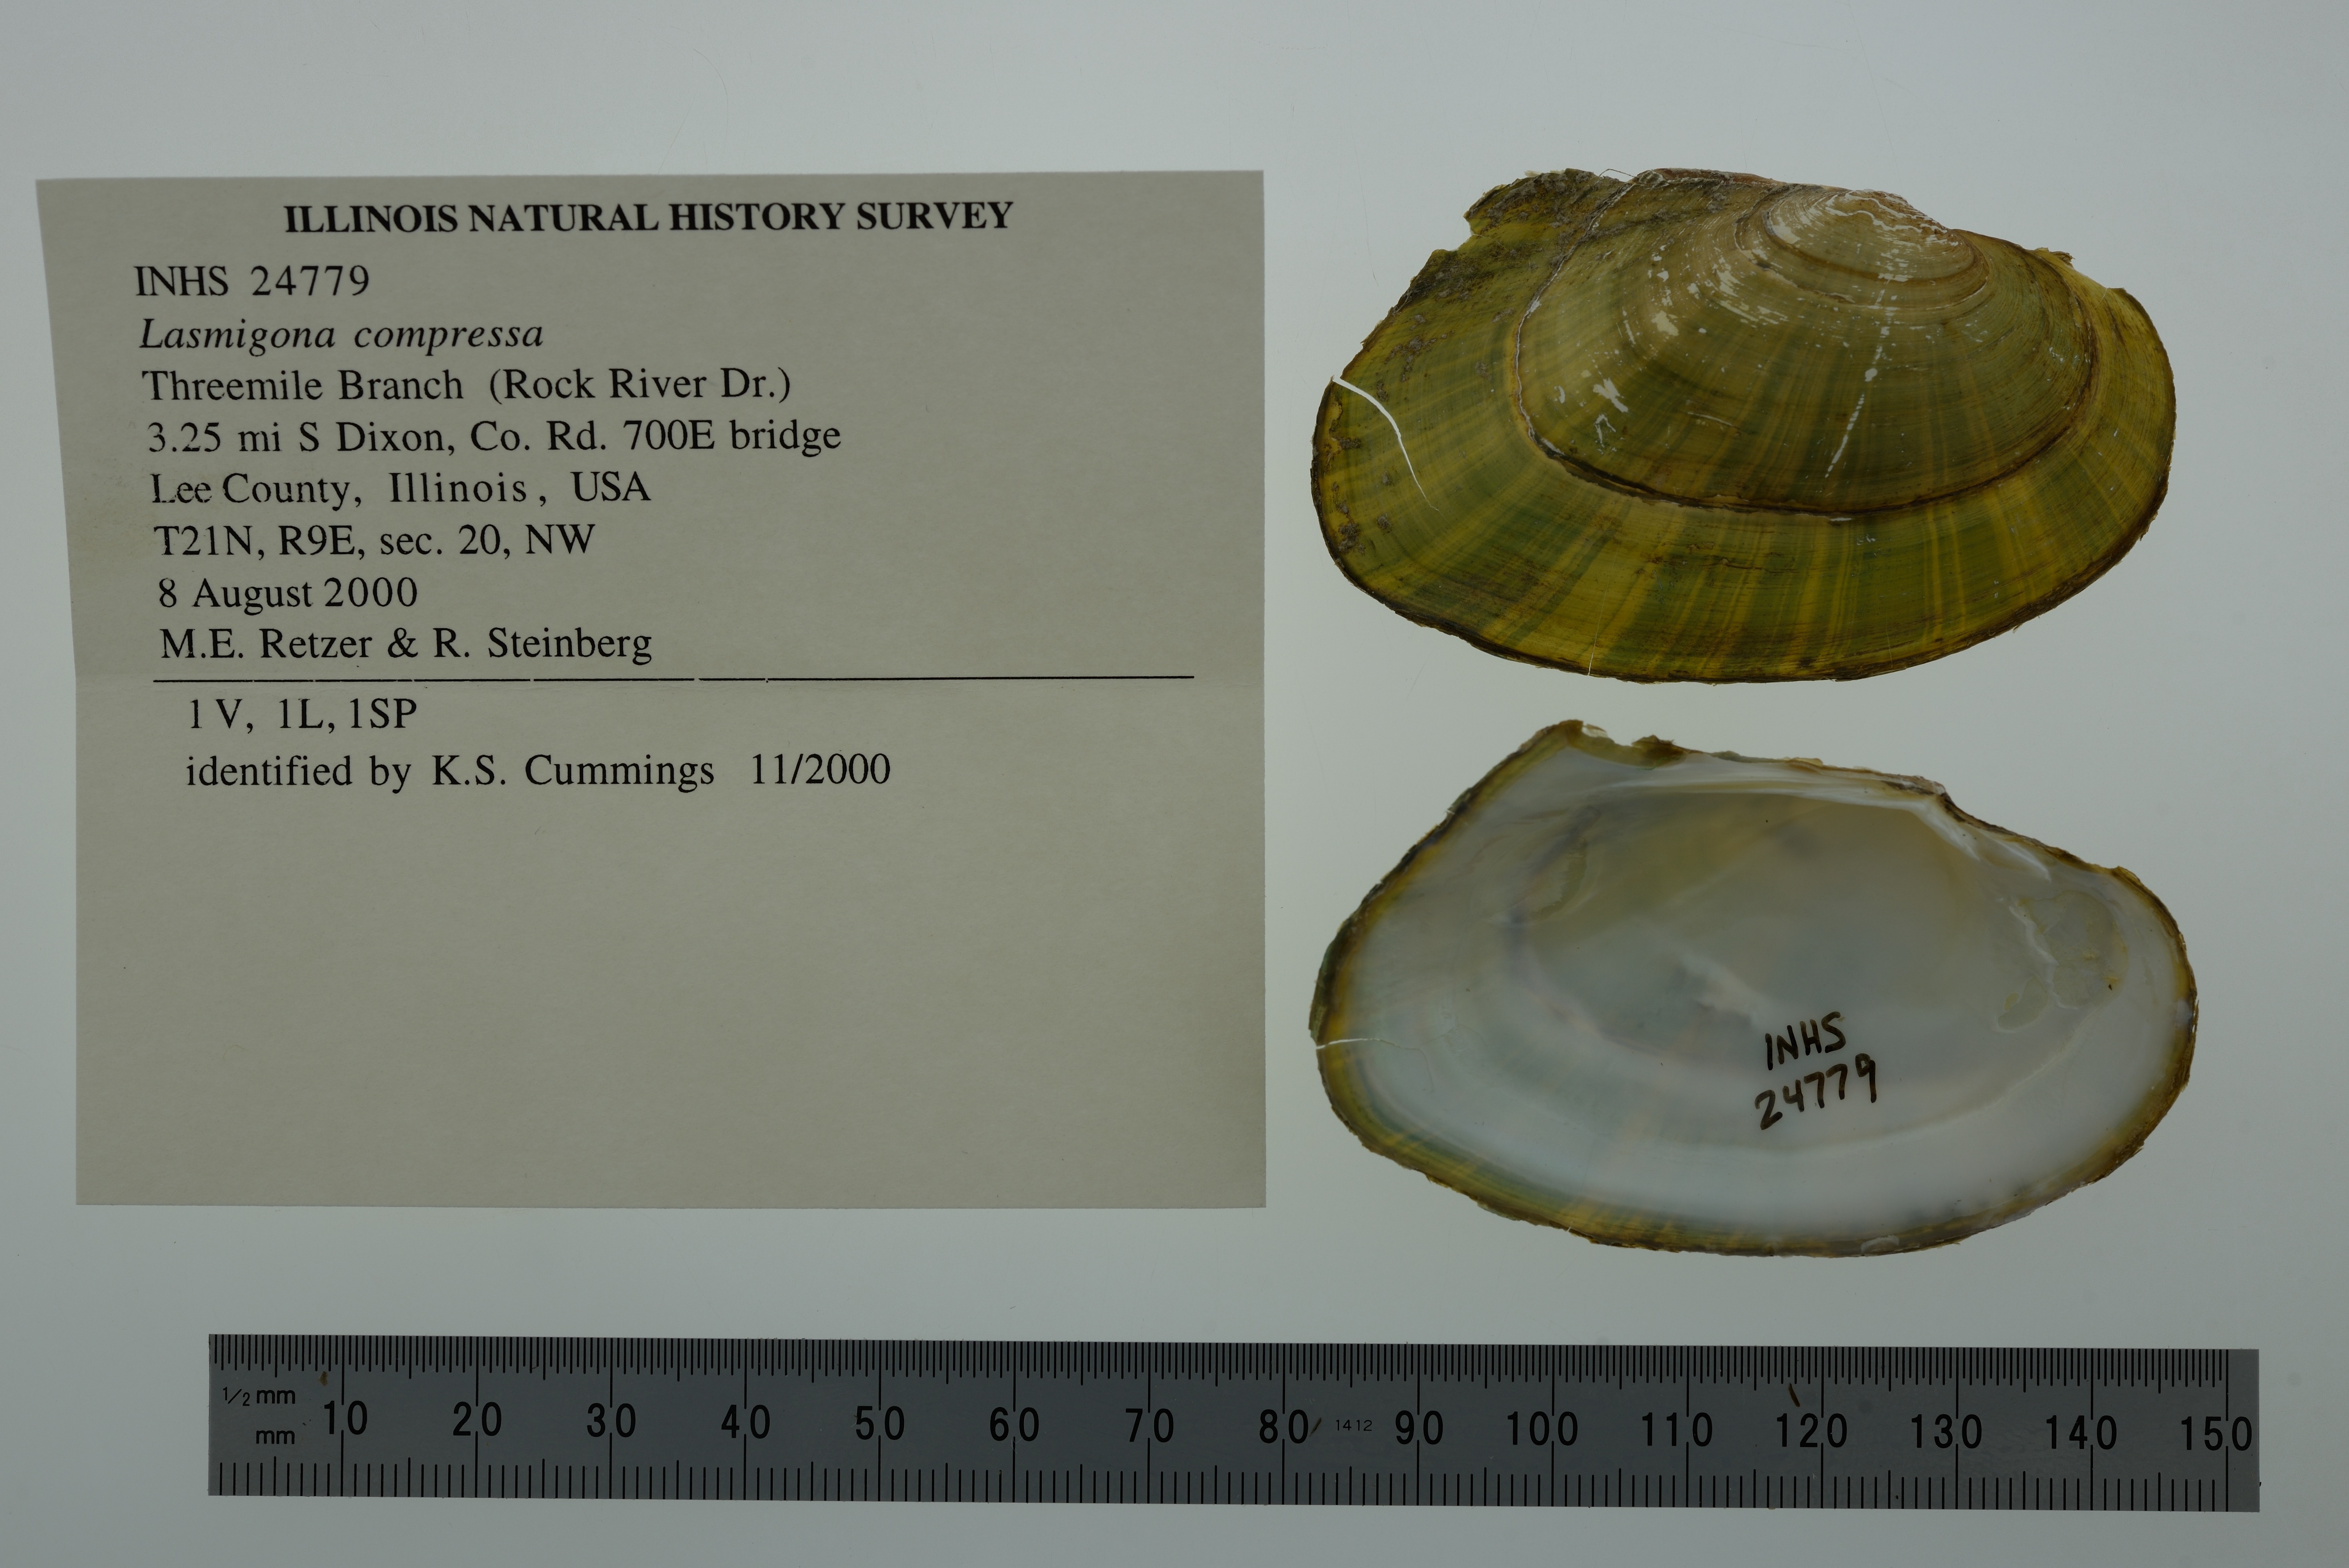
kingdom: Animalia
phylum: Mollusca
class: Bivalvia
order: Unionida
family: Unionidae
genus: Lasmigona
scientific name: Lasmigona compressa
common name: Creek heelsplitter
